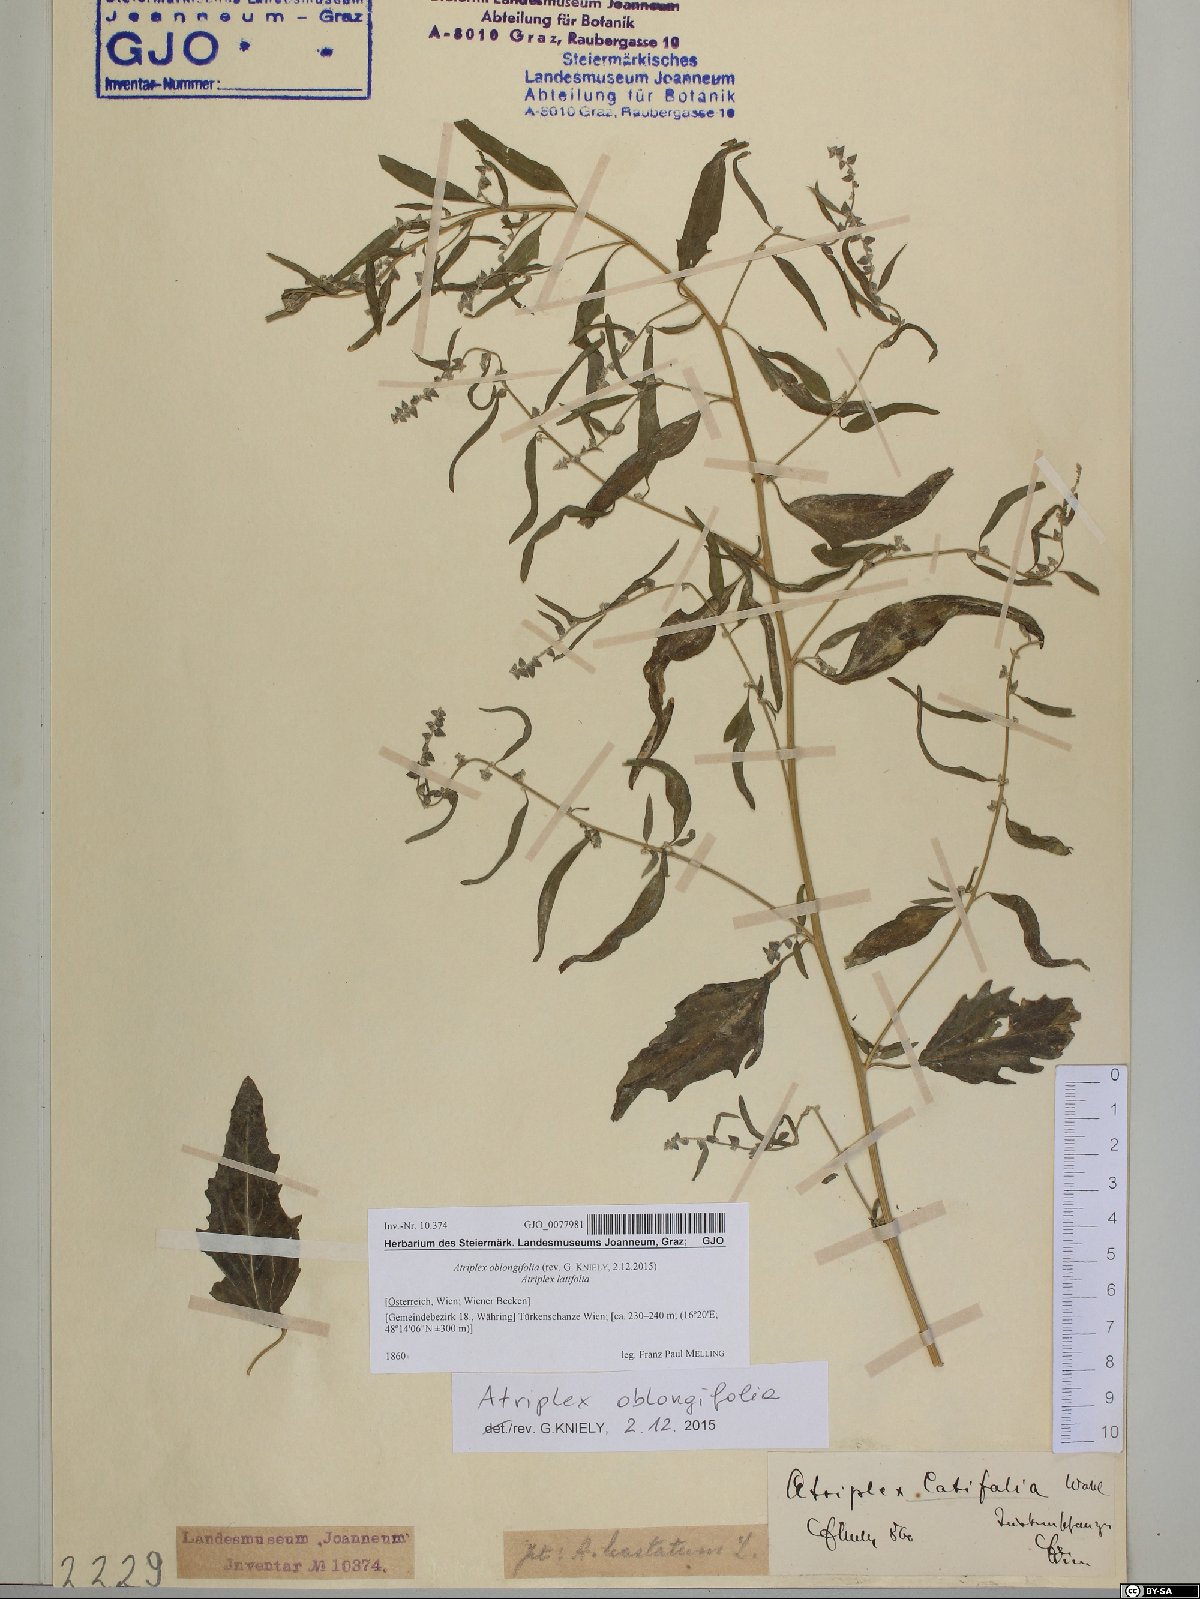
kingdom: Plantae
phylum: Tracheophyta
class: Magnoliopsida
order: Caryophyllales
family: Amaranthaceae
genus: Atriplex
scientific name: Atriplex oblongifolia
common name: Oblongleaf orache
